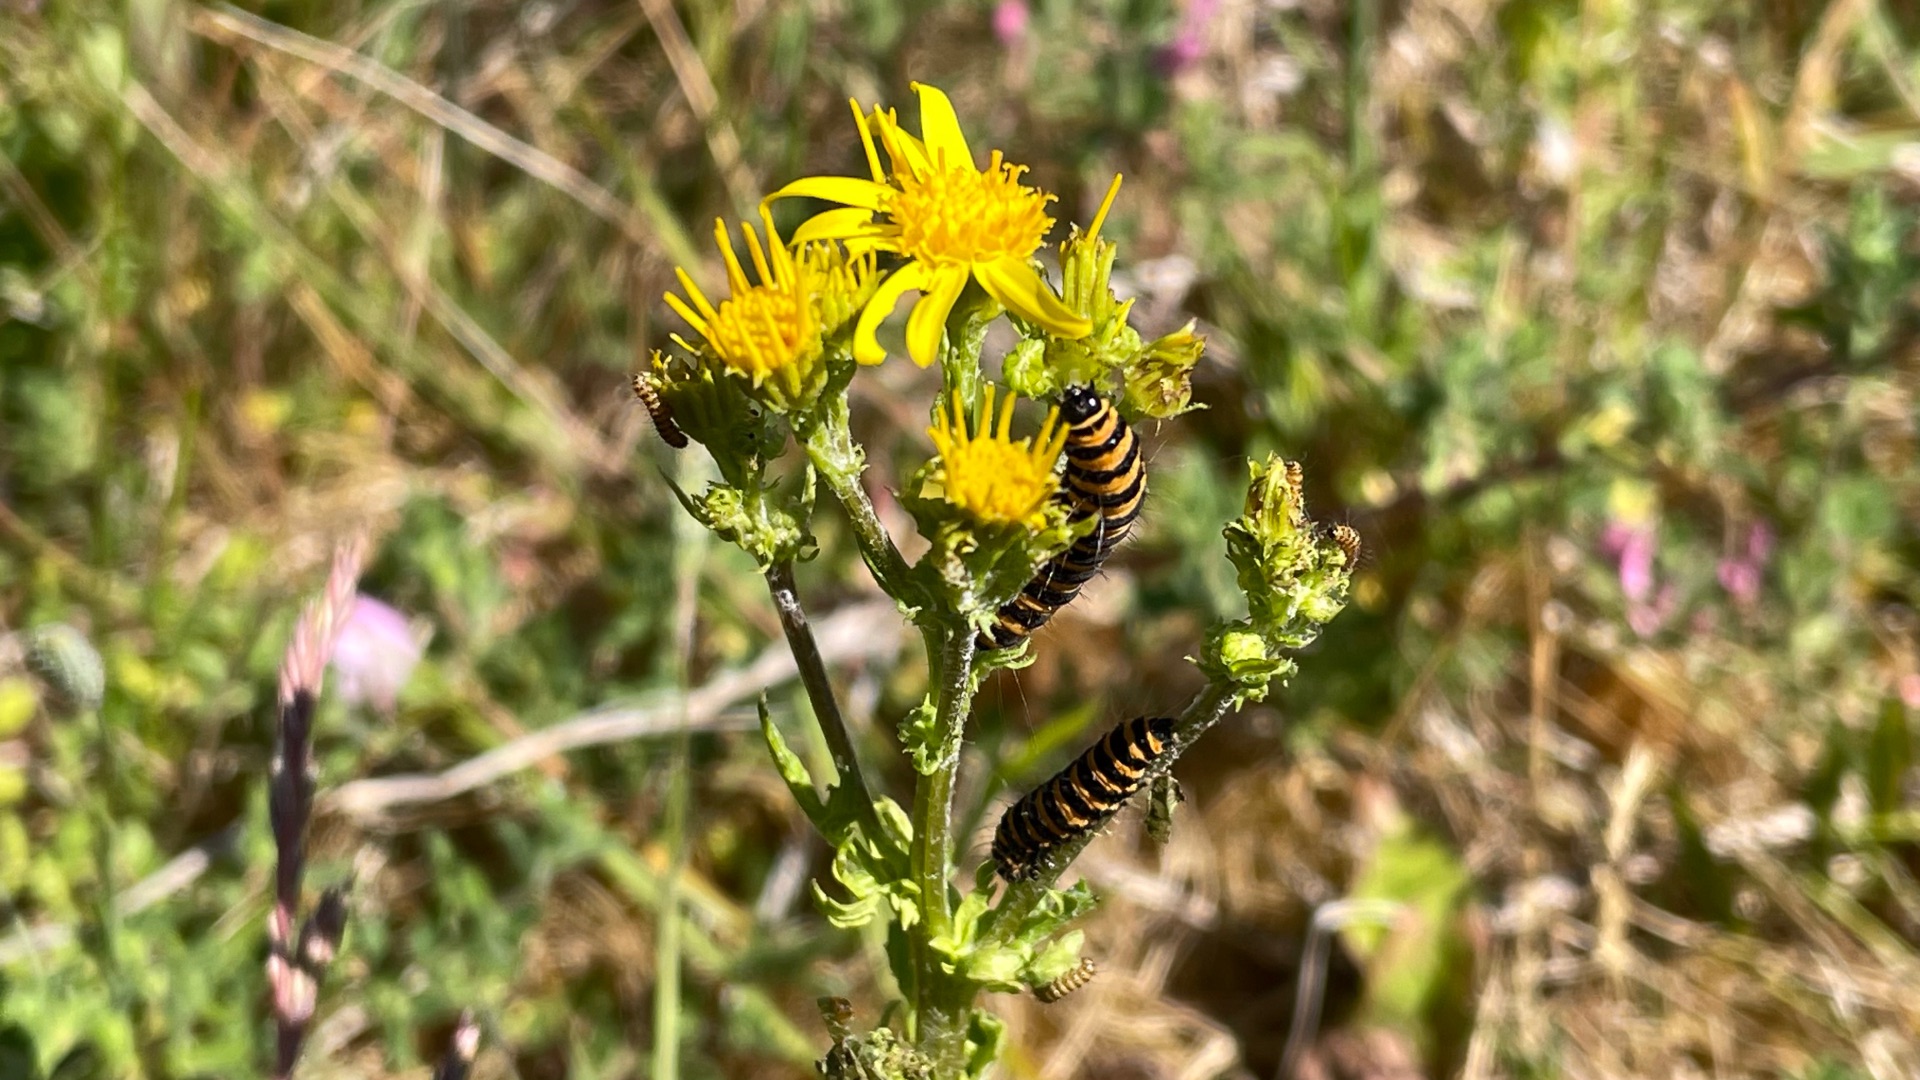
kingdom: Animalia
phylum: Arthropoda
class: Insecta
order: Lepidoptera
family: Erebidae
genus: Tyria
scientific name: Tyria jacobaeae
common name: Blodplet
